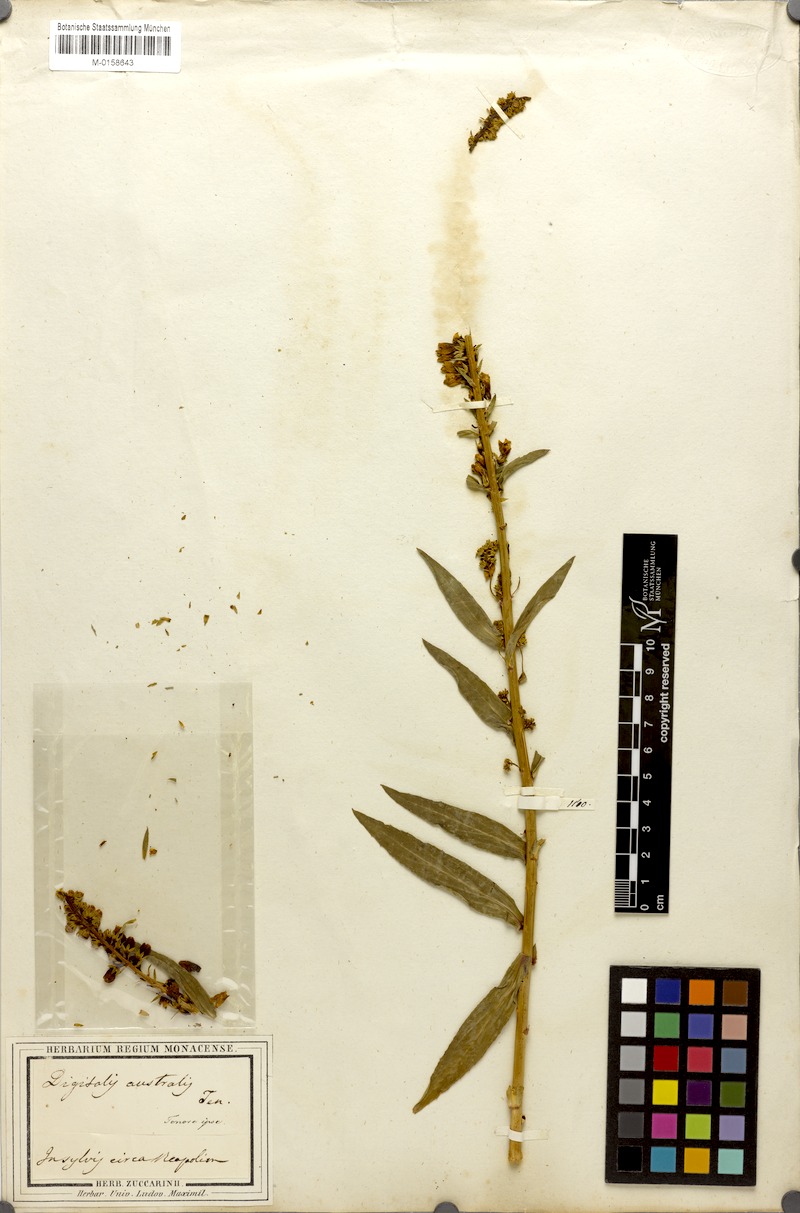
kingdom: Plantae
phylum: Tracheophyta
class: Magnoliopsida
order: Lamiales
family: Plantaginaceae
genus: Digitalis
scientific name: Digitalis lutea
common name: Straw foxglove
